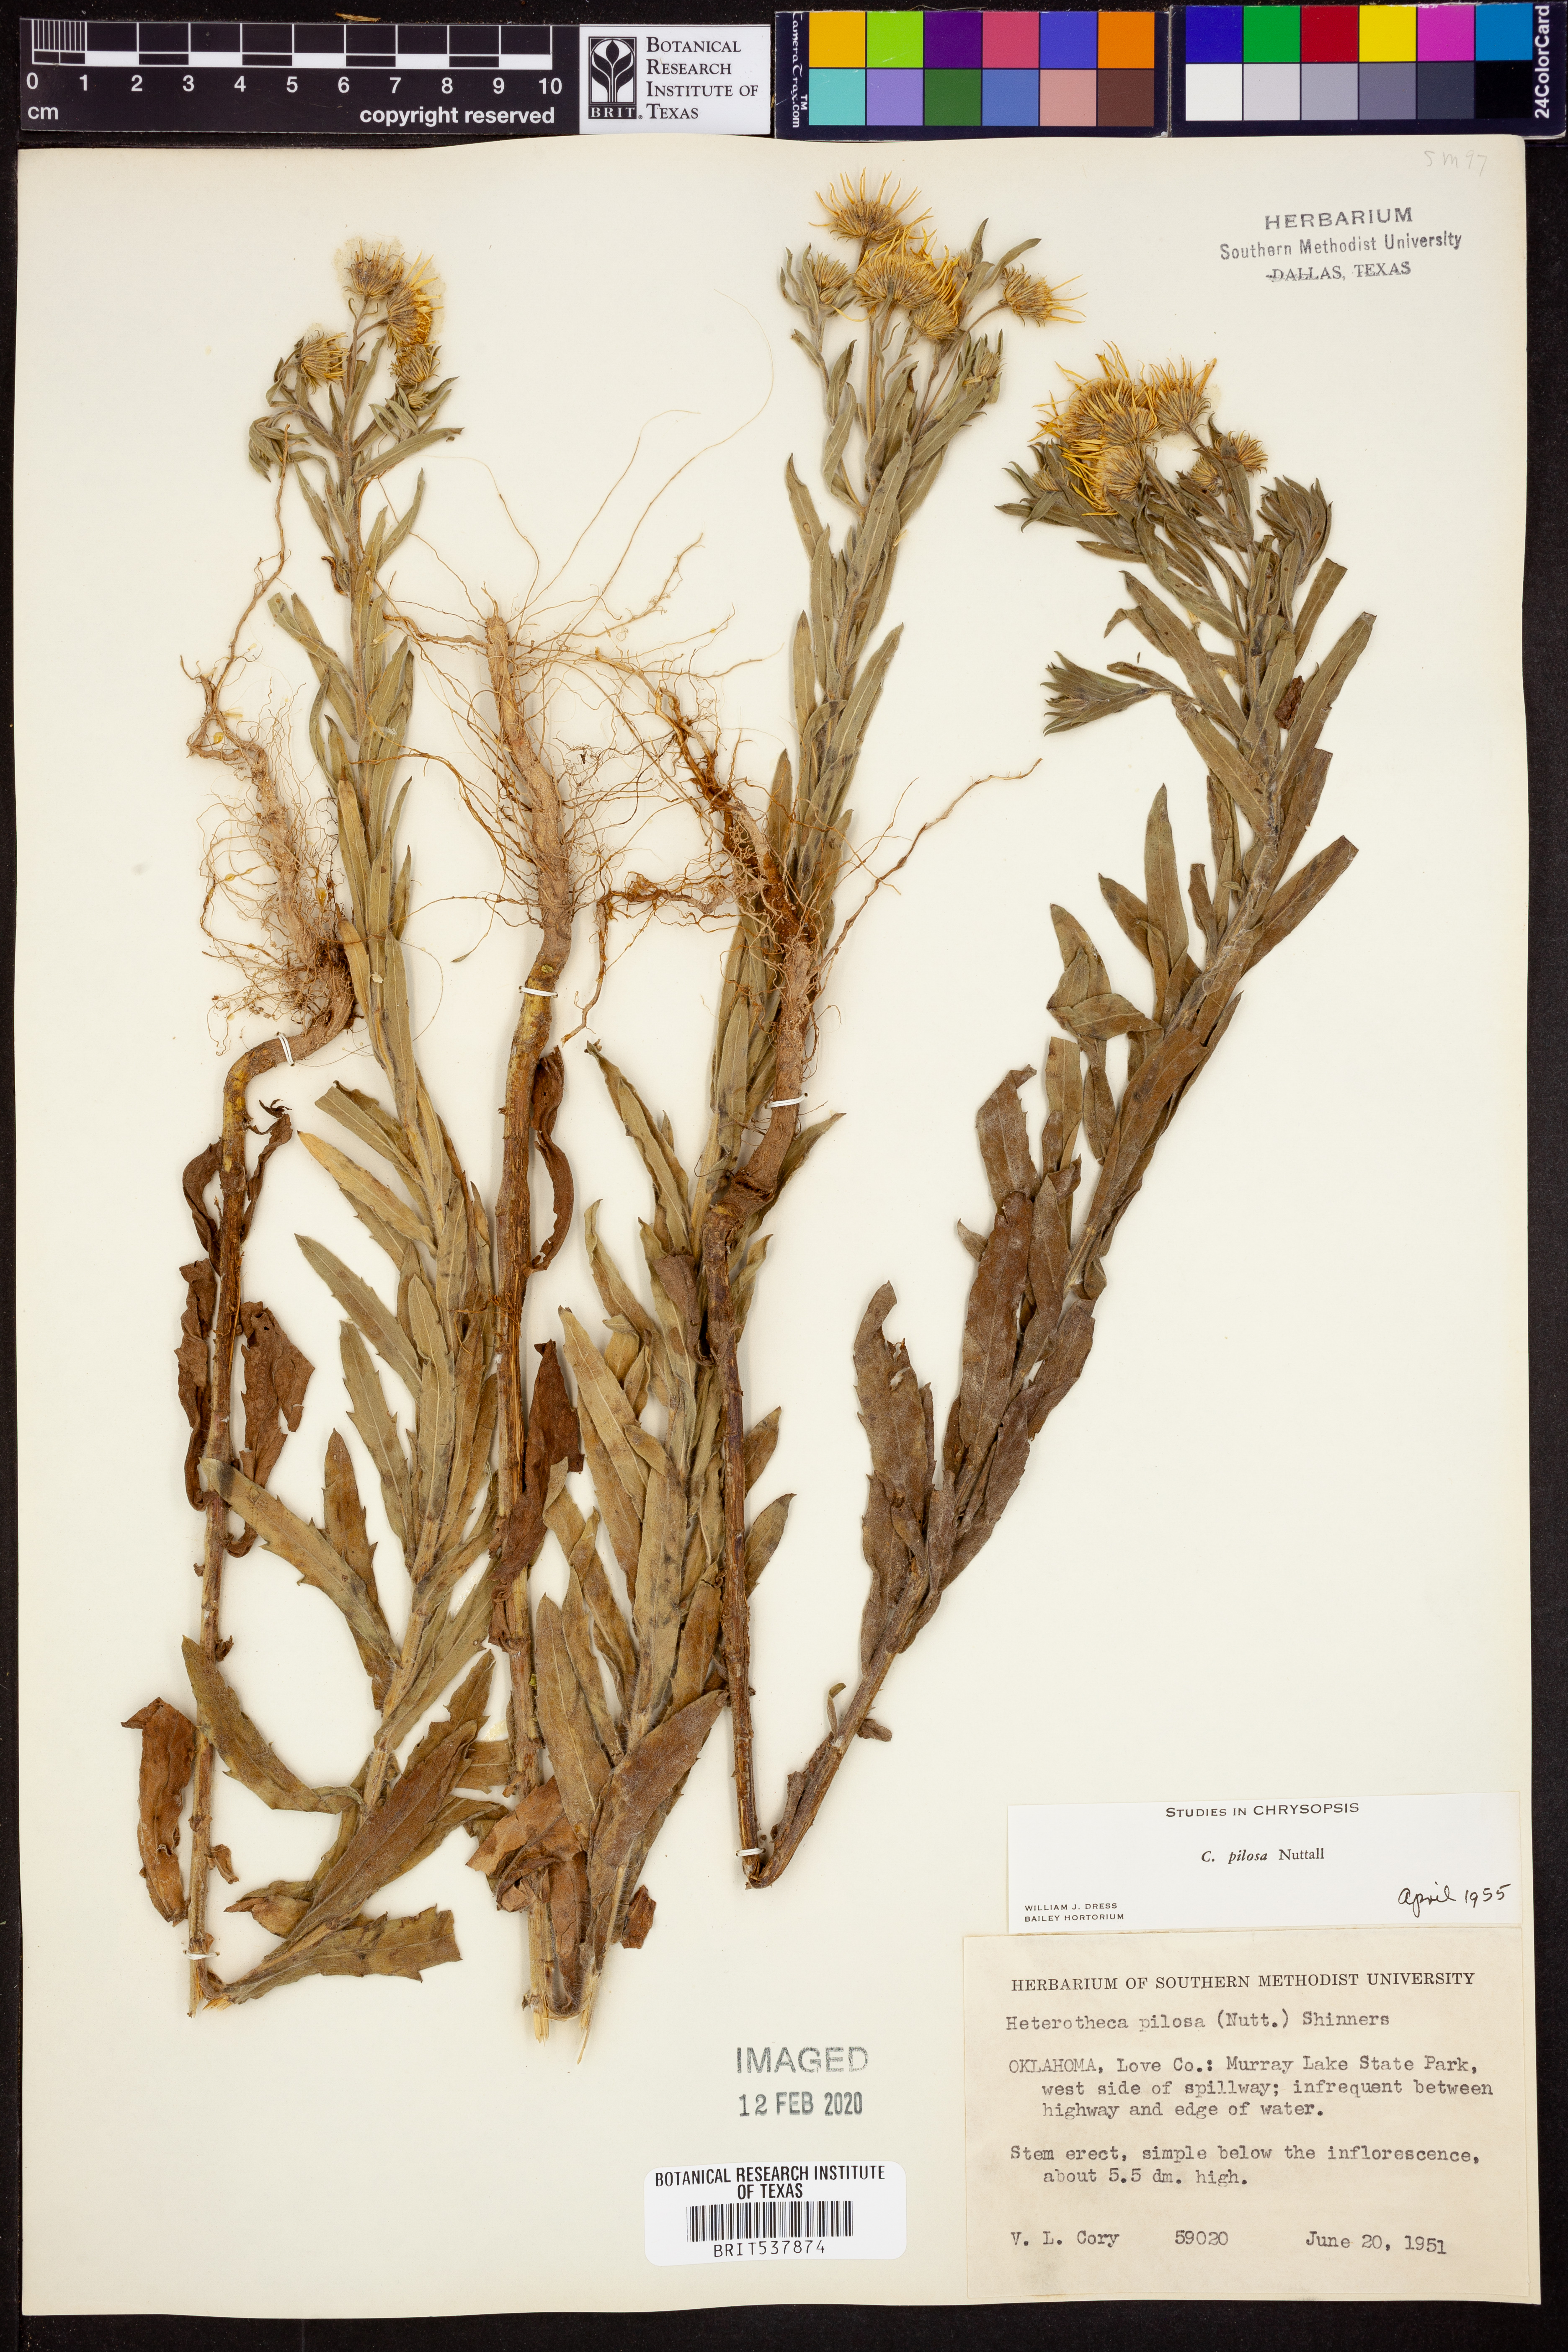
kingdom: Plantae
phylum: Tracheophyta
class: Magnoliopsida
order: Asterales
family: Asteraceae
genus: Bradburia
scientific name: Bradburia pilosa
